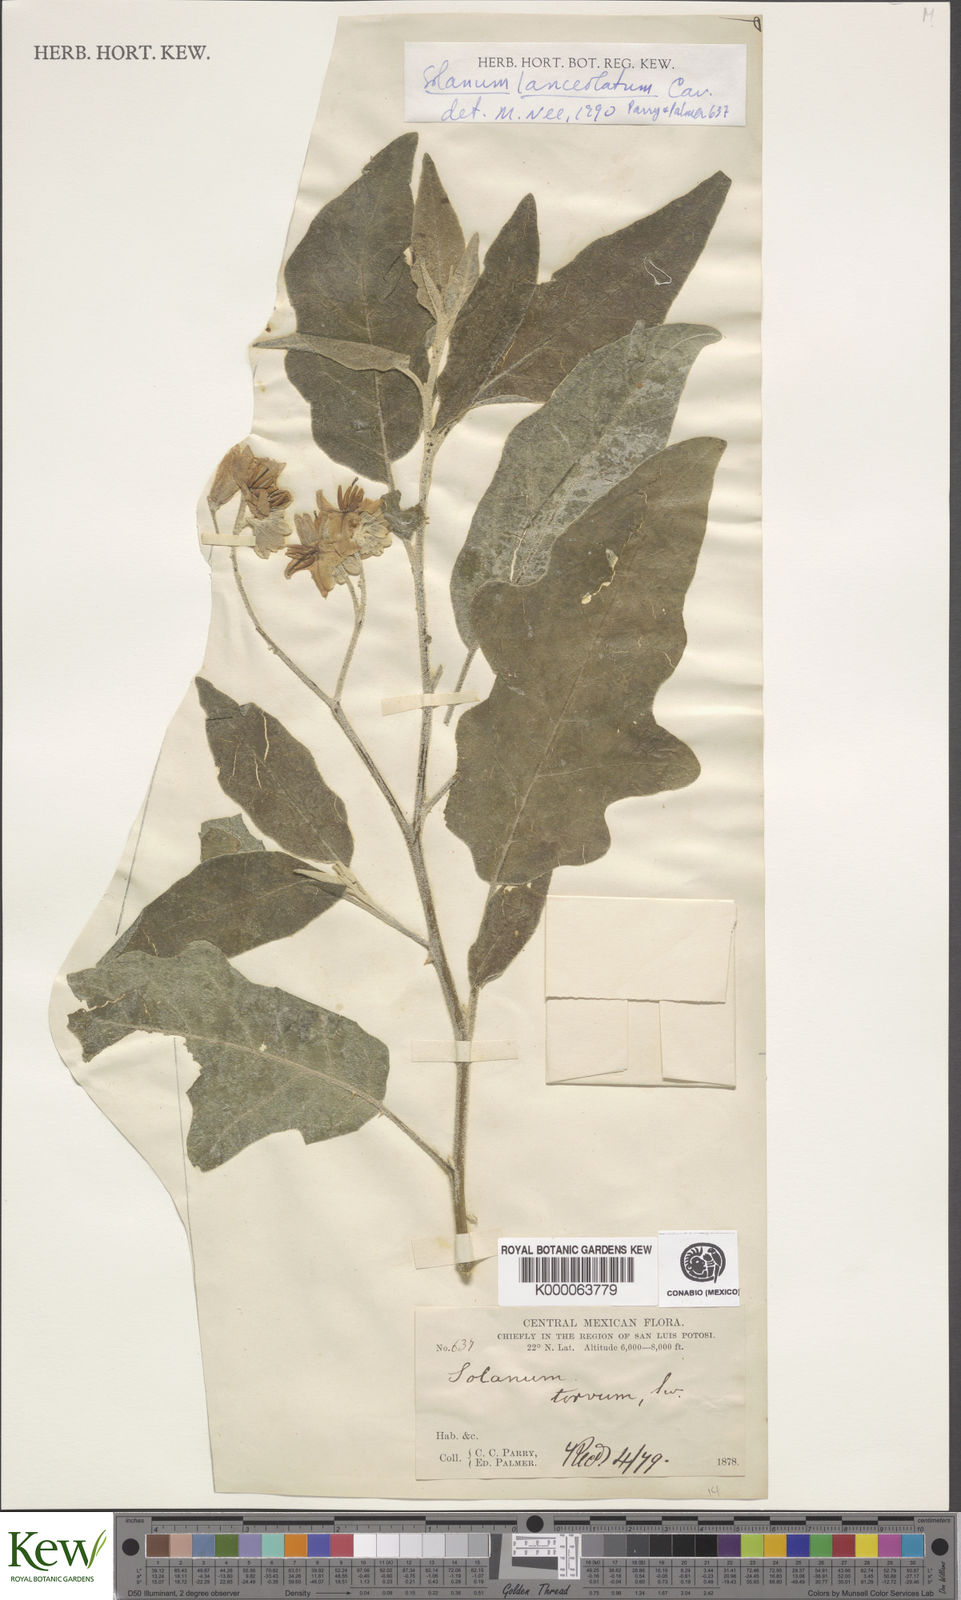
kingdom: Plantae
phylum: Tracheophyta
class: Magnoliopsida
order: Solanales
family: Solanaceae
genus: Solanum
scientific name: Solanum lanceolatum
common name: Orangeberry nightshade
